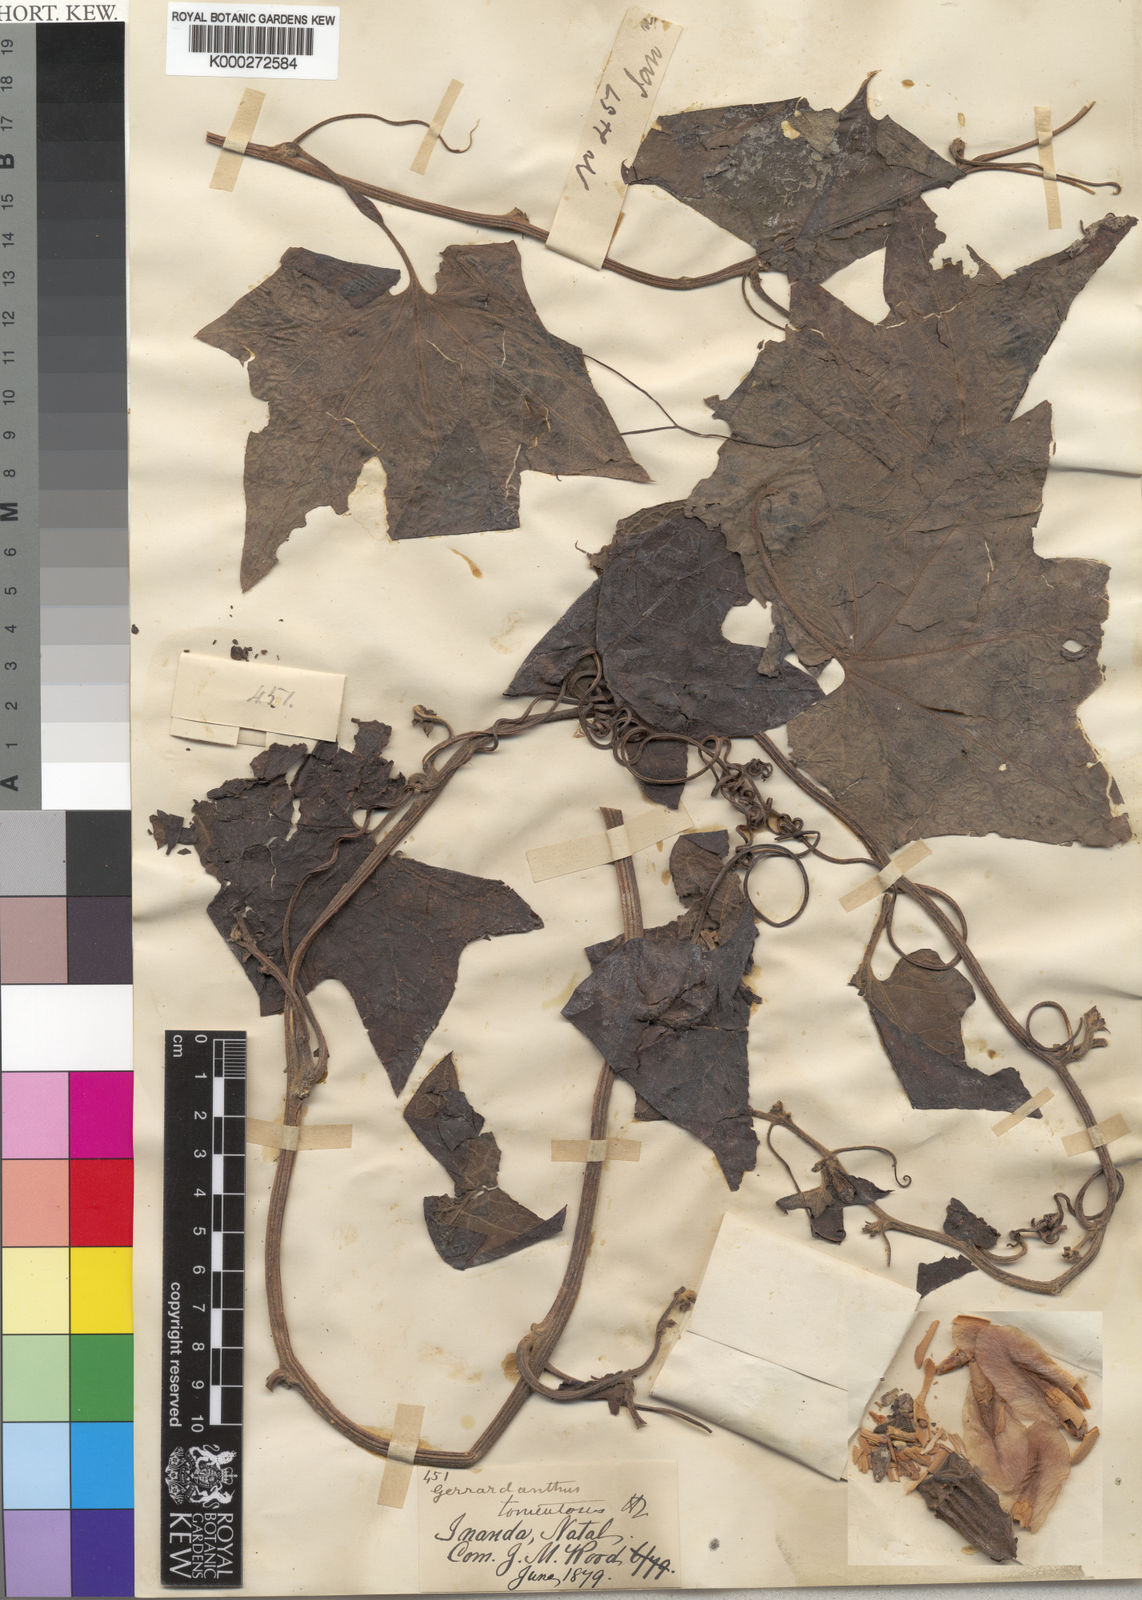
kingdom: Plantae
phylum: Tracheophyta
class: Magnoliopsida
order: Cucurbitales
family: Cucurbitaceae
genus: Gerrardanthus
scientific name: Gerrardanthus tomentosus
